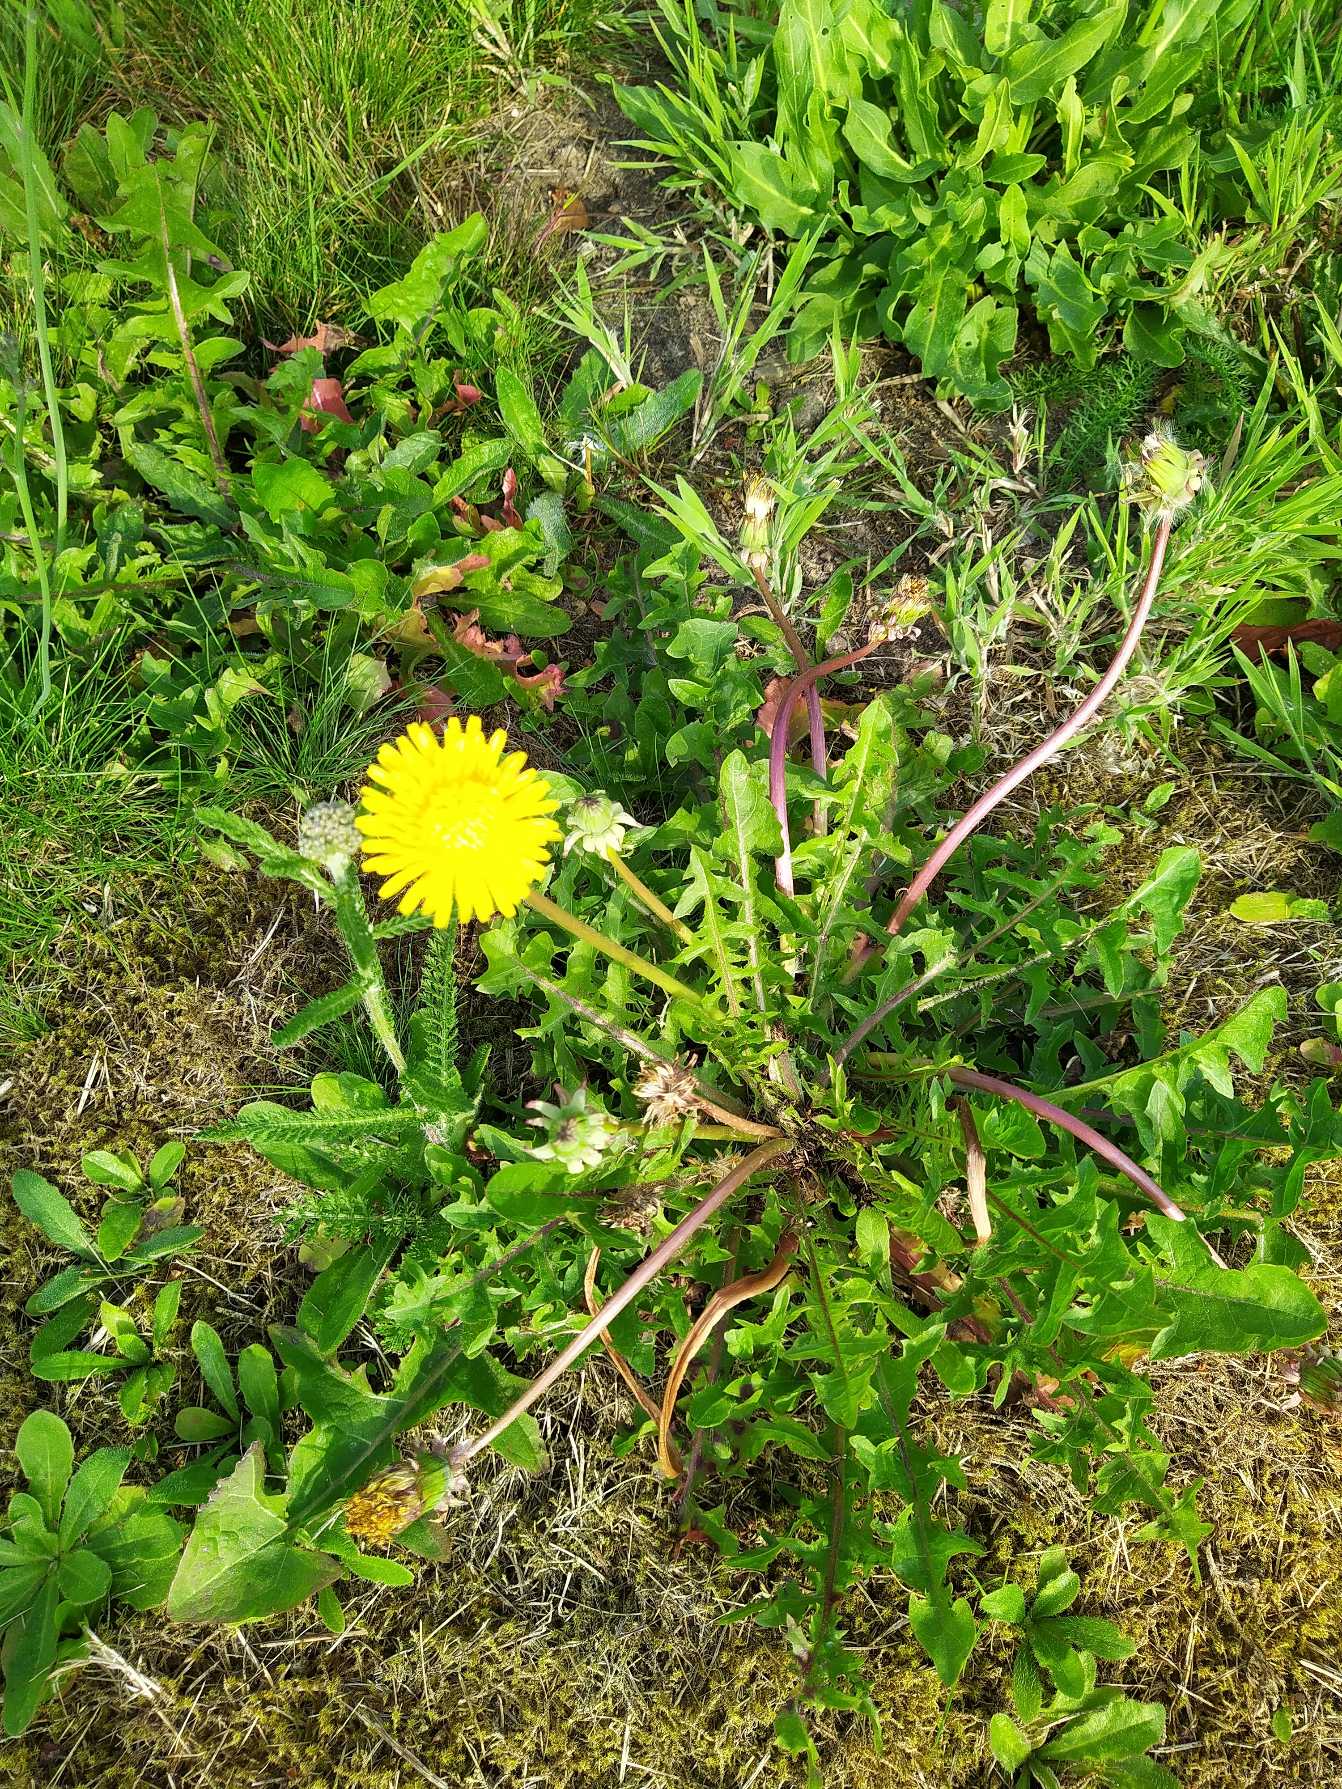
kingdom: Plantae
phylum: Tracheophyta
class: Magnoliopsida
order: Asterales
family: Asteraceae
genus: Taraxacum
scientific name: Taraxacum
